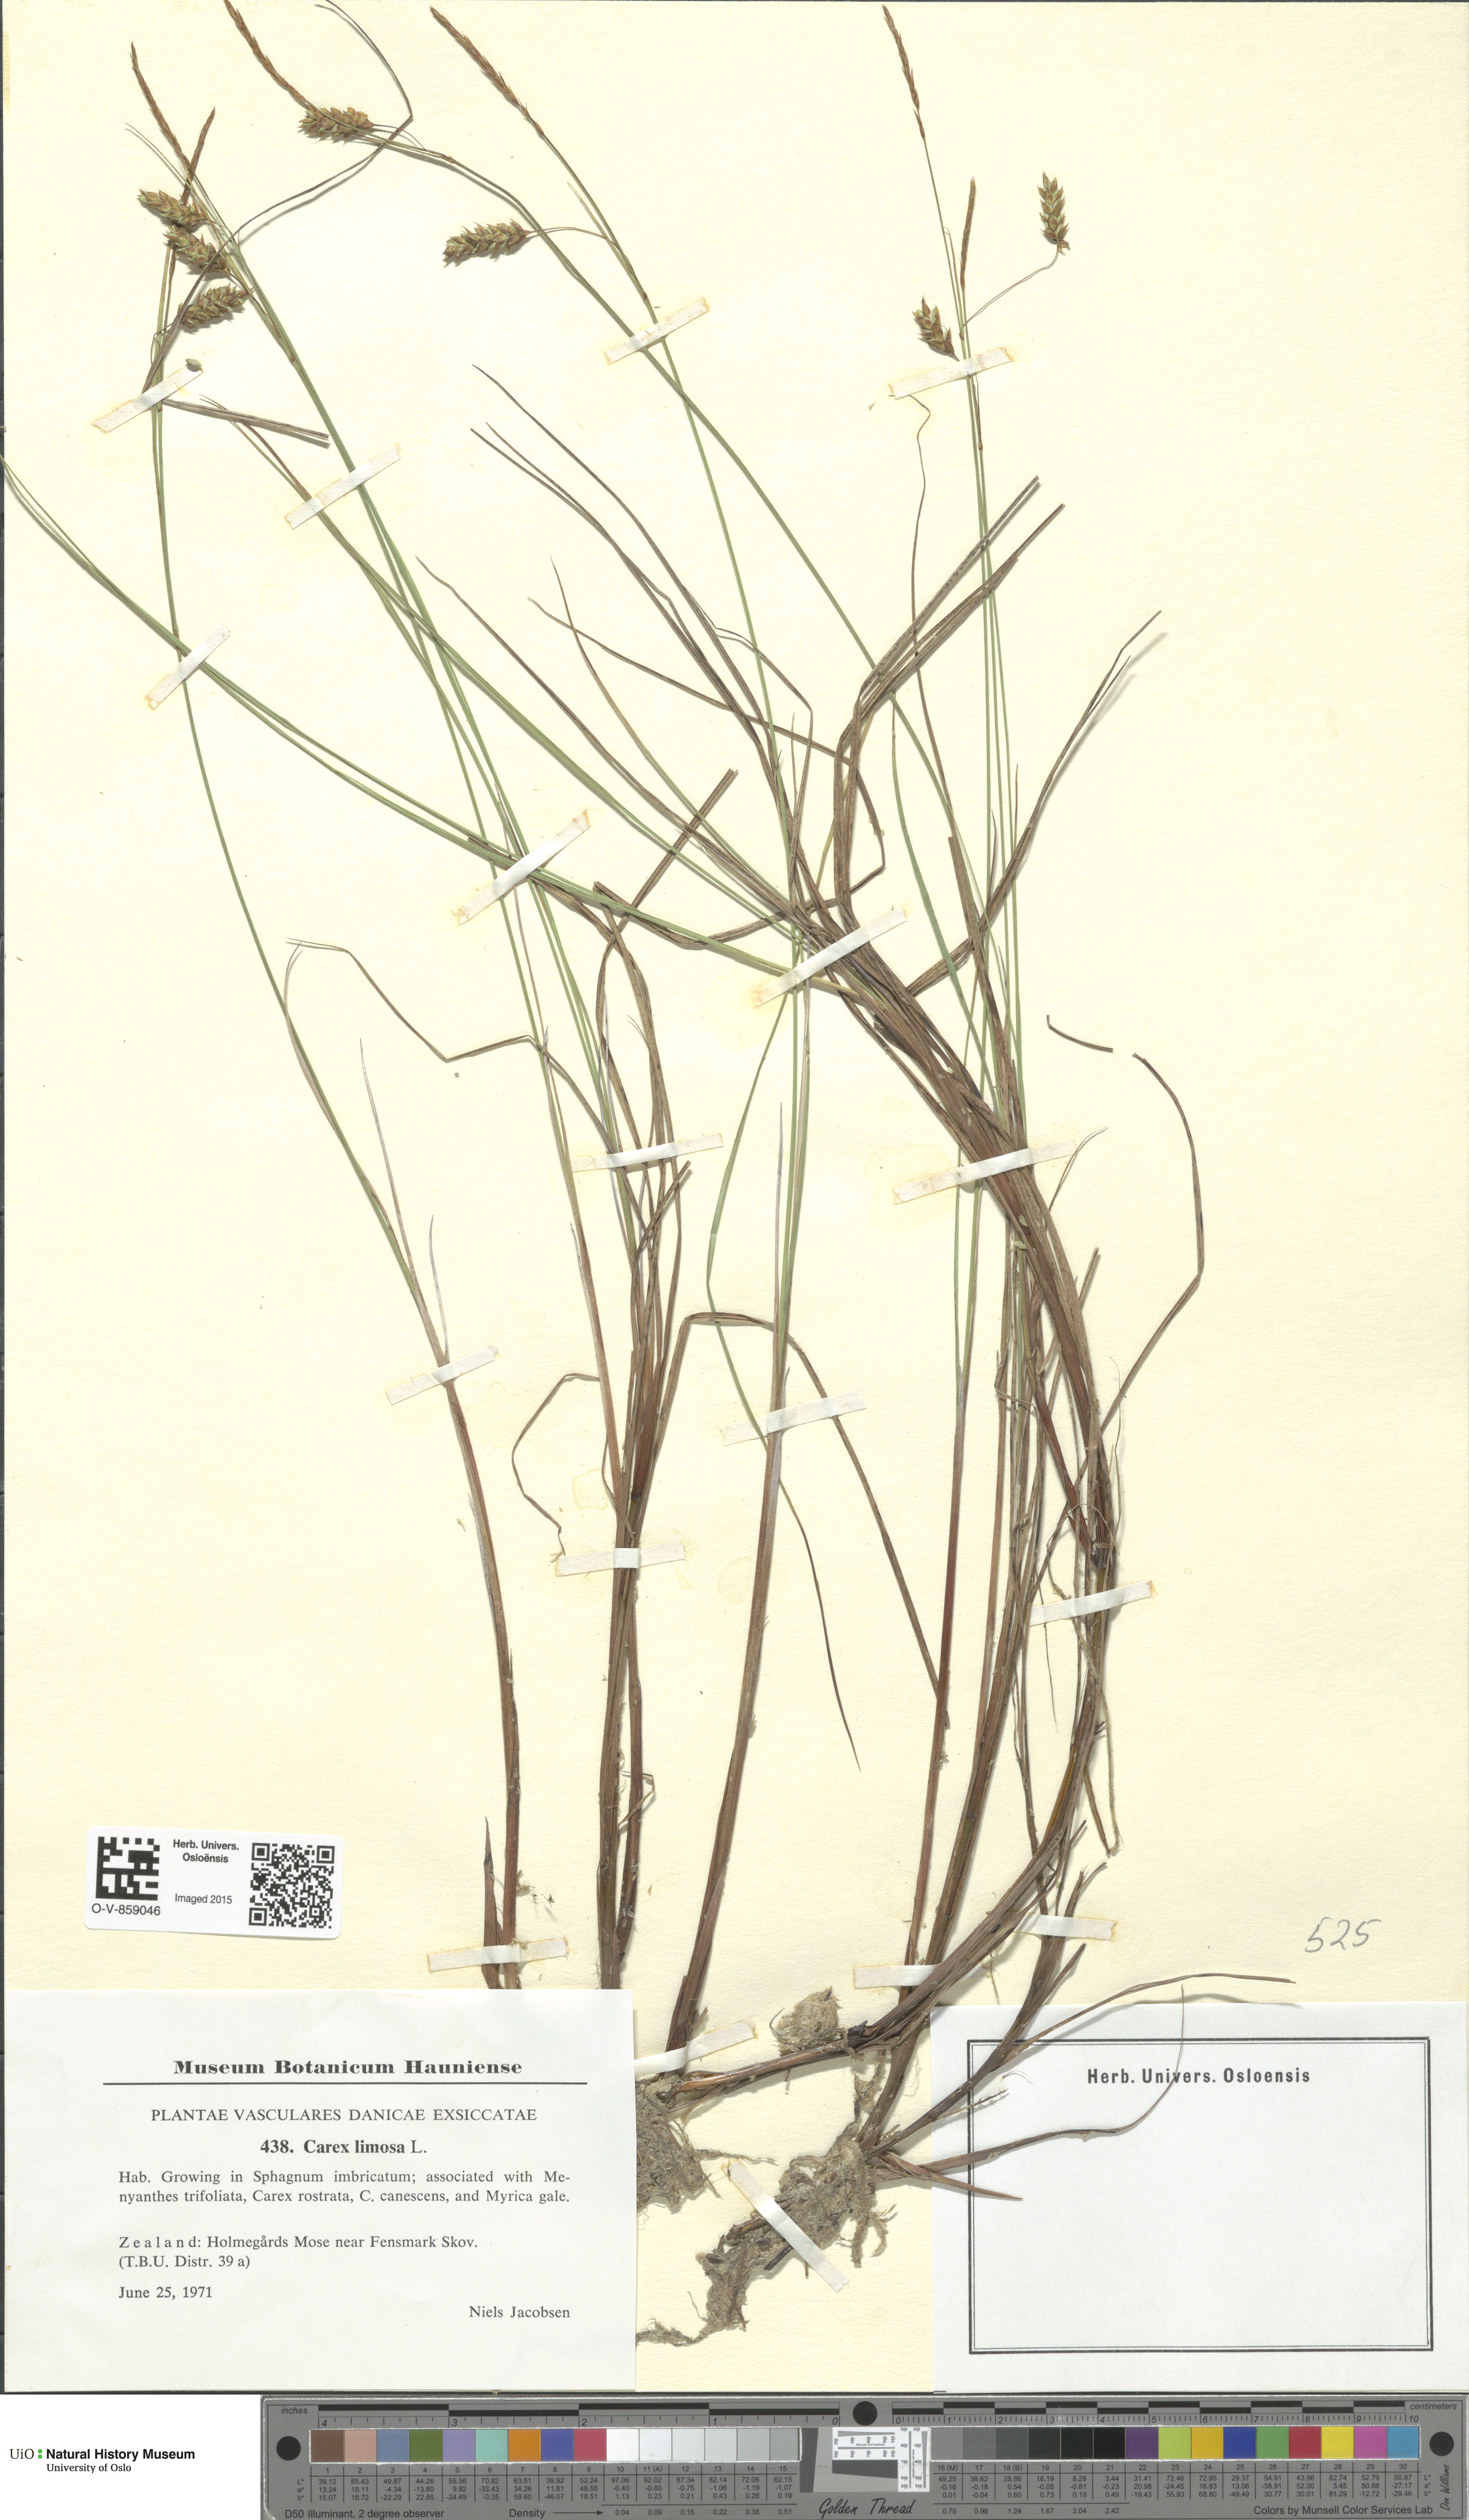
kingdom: Plantae
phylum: Tracheophyta
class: Liliopsida
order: Poales
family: Cyperaceae
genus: Carex
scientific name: Carex limosa
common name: Bog sedge
